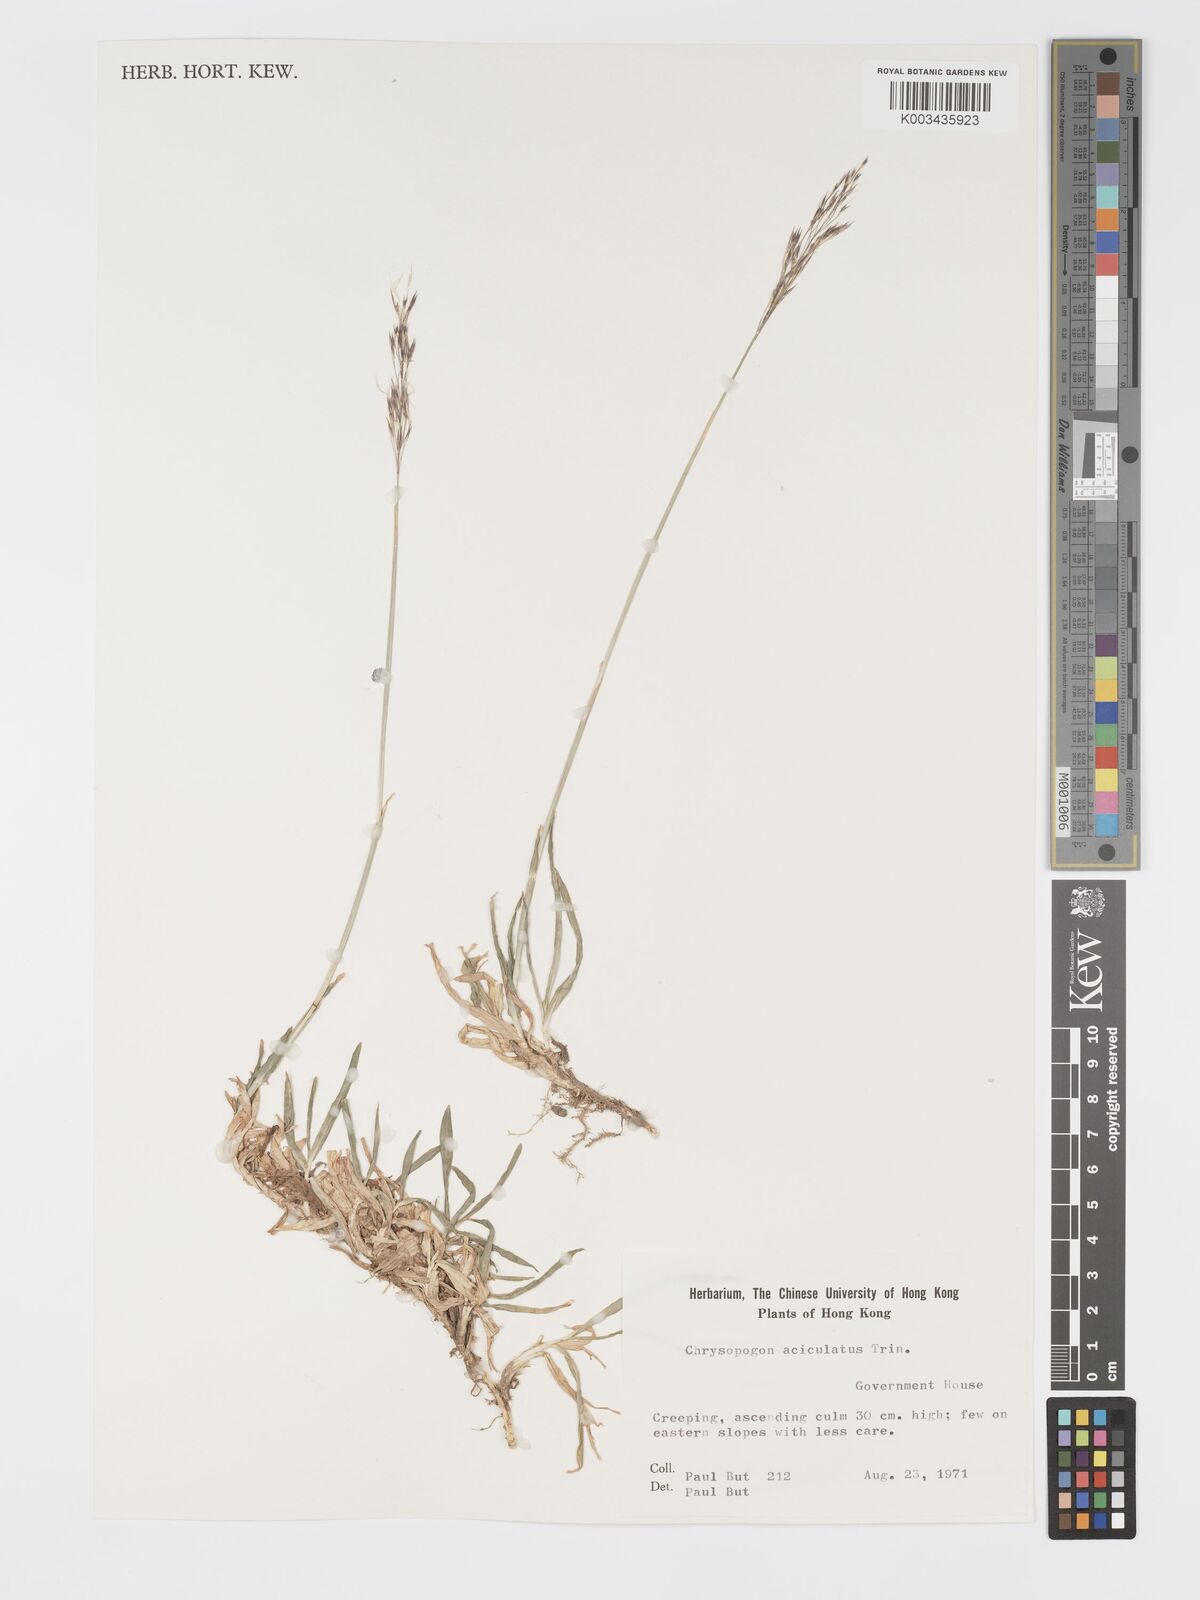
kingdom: Plantae
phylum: Tracheophyta
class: Liliopsida
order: Poales
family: Poaceae
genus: Chrysopogon
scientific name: Chrysopogon aciculatus
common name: Pilipiliula
